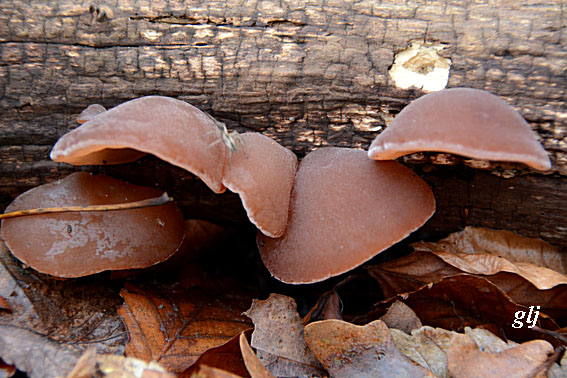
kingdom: Fungi
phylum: Basidiomycota
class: Agaricomycetes
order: Auriculariales
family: Auriculariaceae
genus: Auricularia
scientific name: Auricularia auricula-judae
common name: almindelig judasøre
